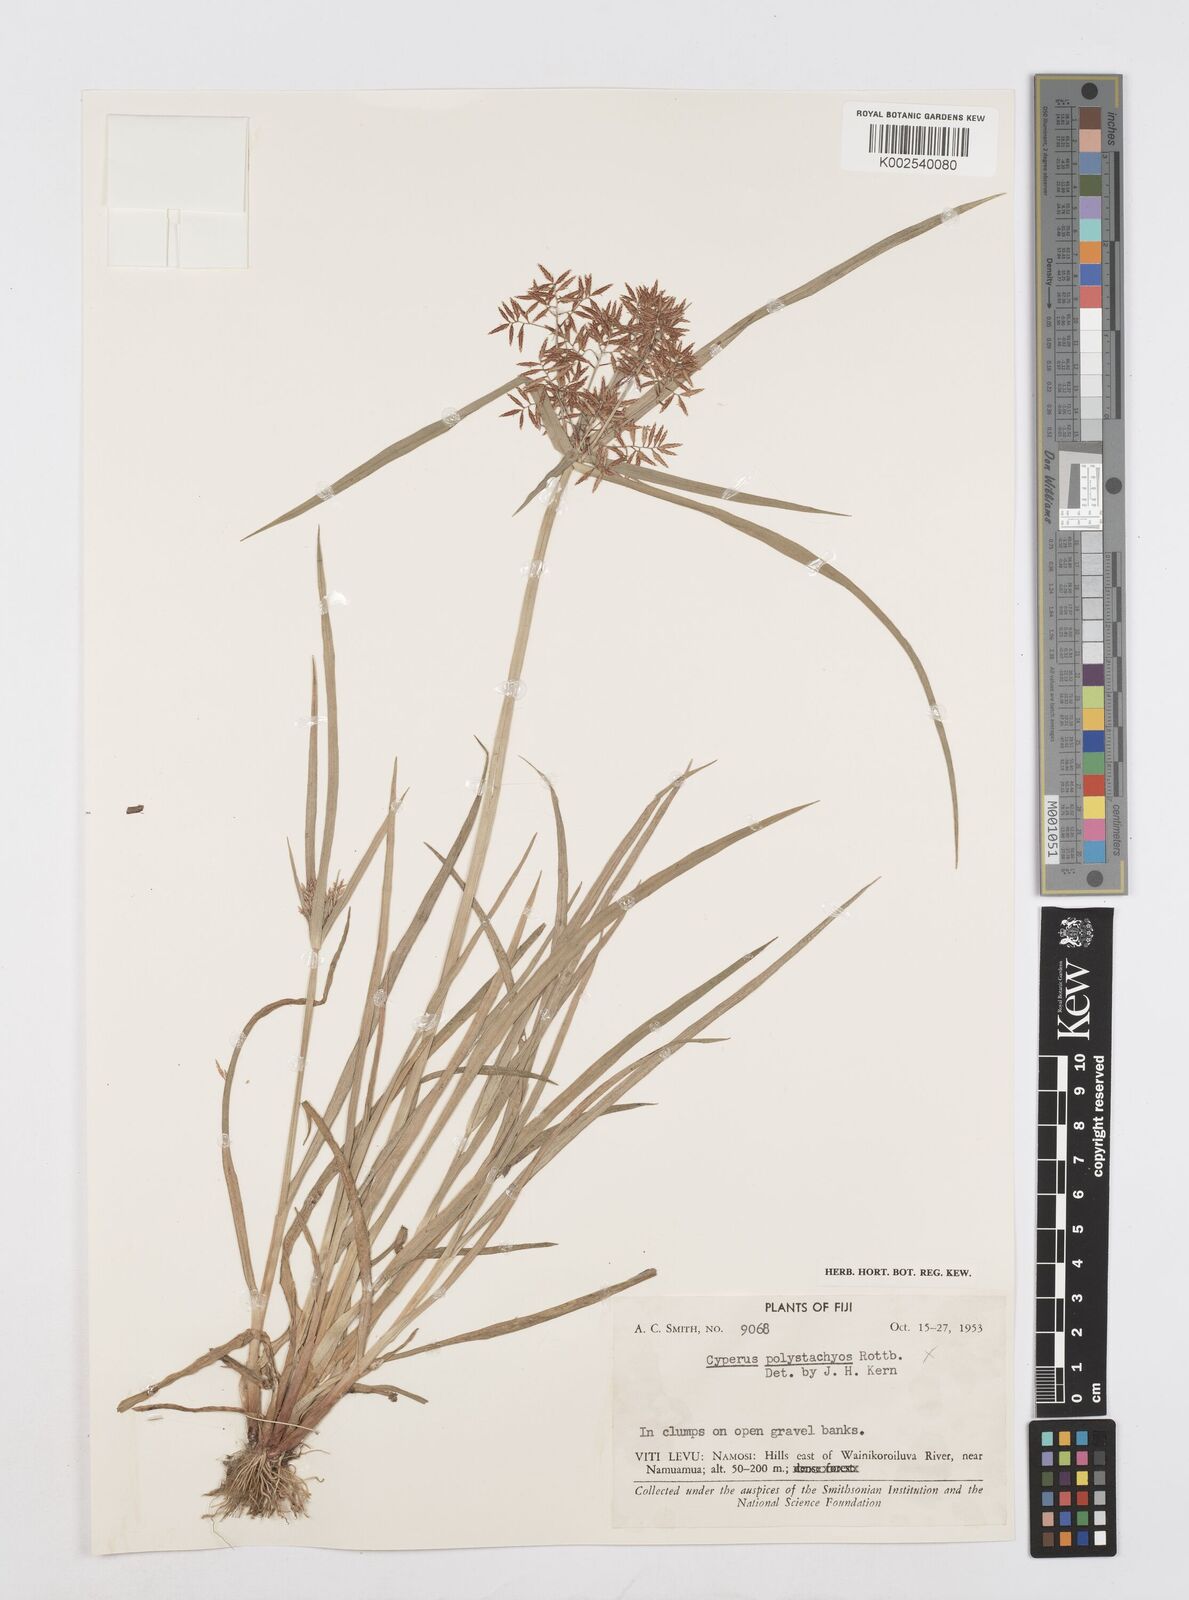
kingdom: Plantae
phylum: Tracheophyta
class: Liliopsida
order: Poales
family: Cyperaceae
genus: Cyperus
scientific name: Cyperus polystachyos
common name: Bunchy flat sedge
